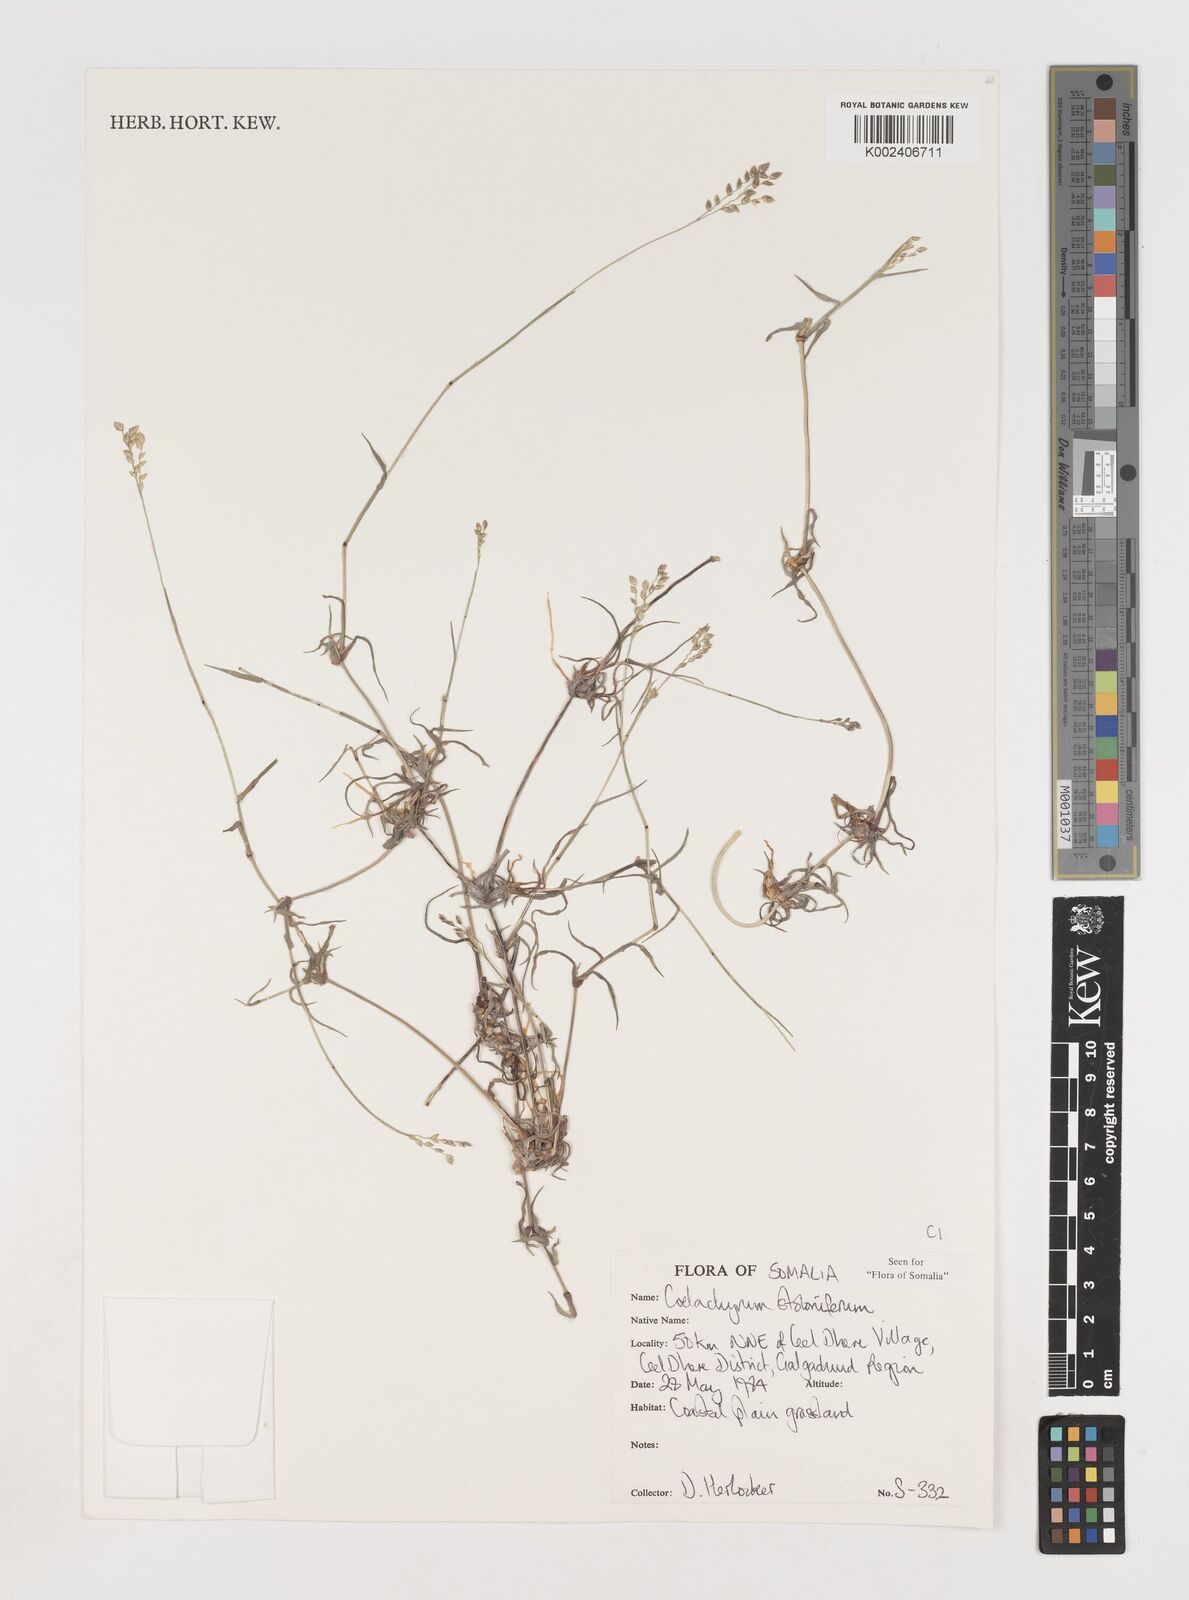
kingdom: Plantae
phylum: Tracheophyta
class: Liliopsida
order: Poales
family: Poaceae
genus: Coelachyrum
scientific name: Coelachyrum piercei
